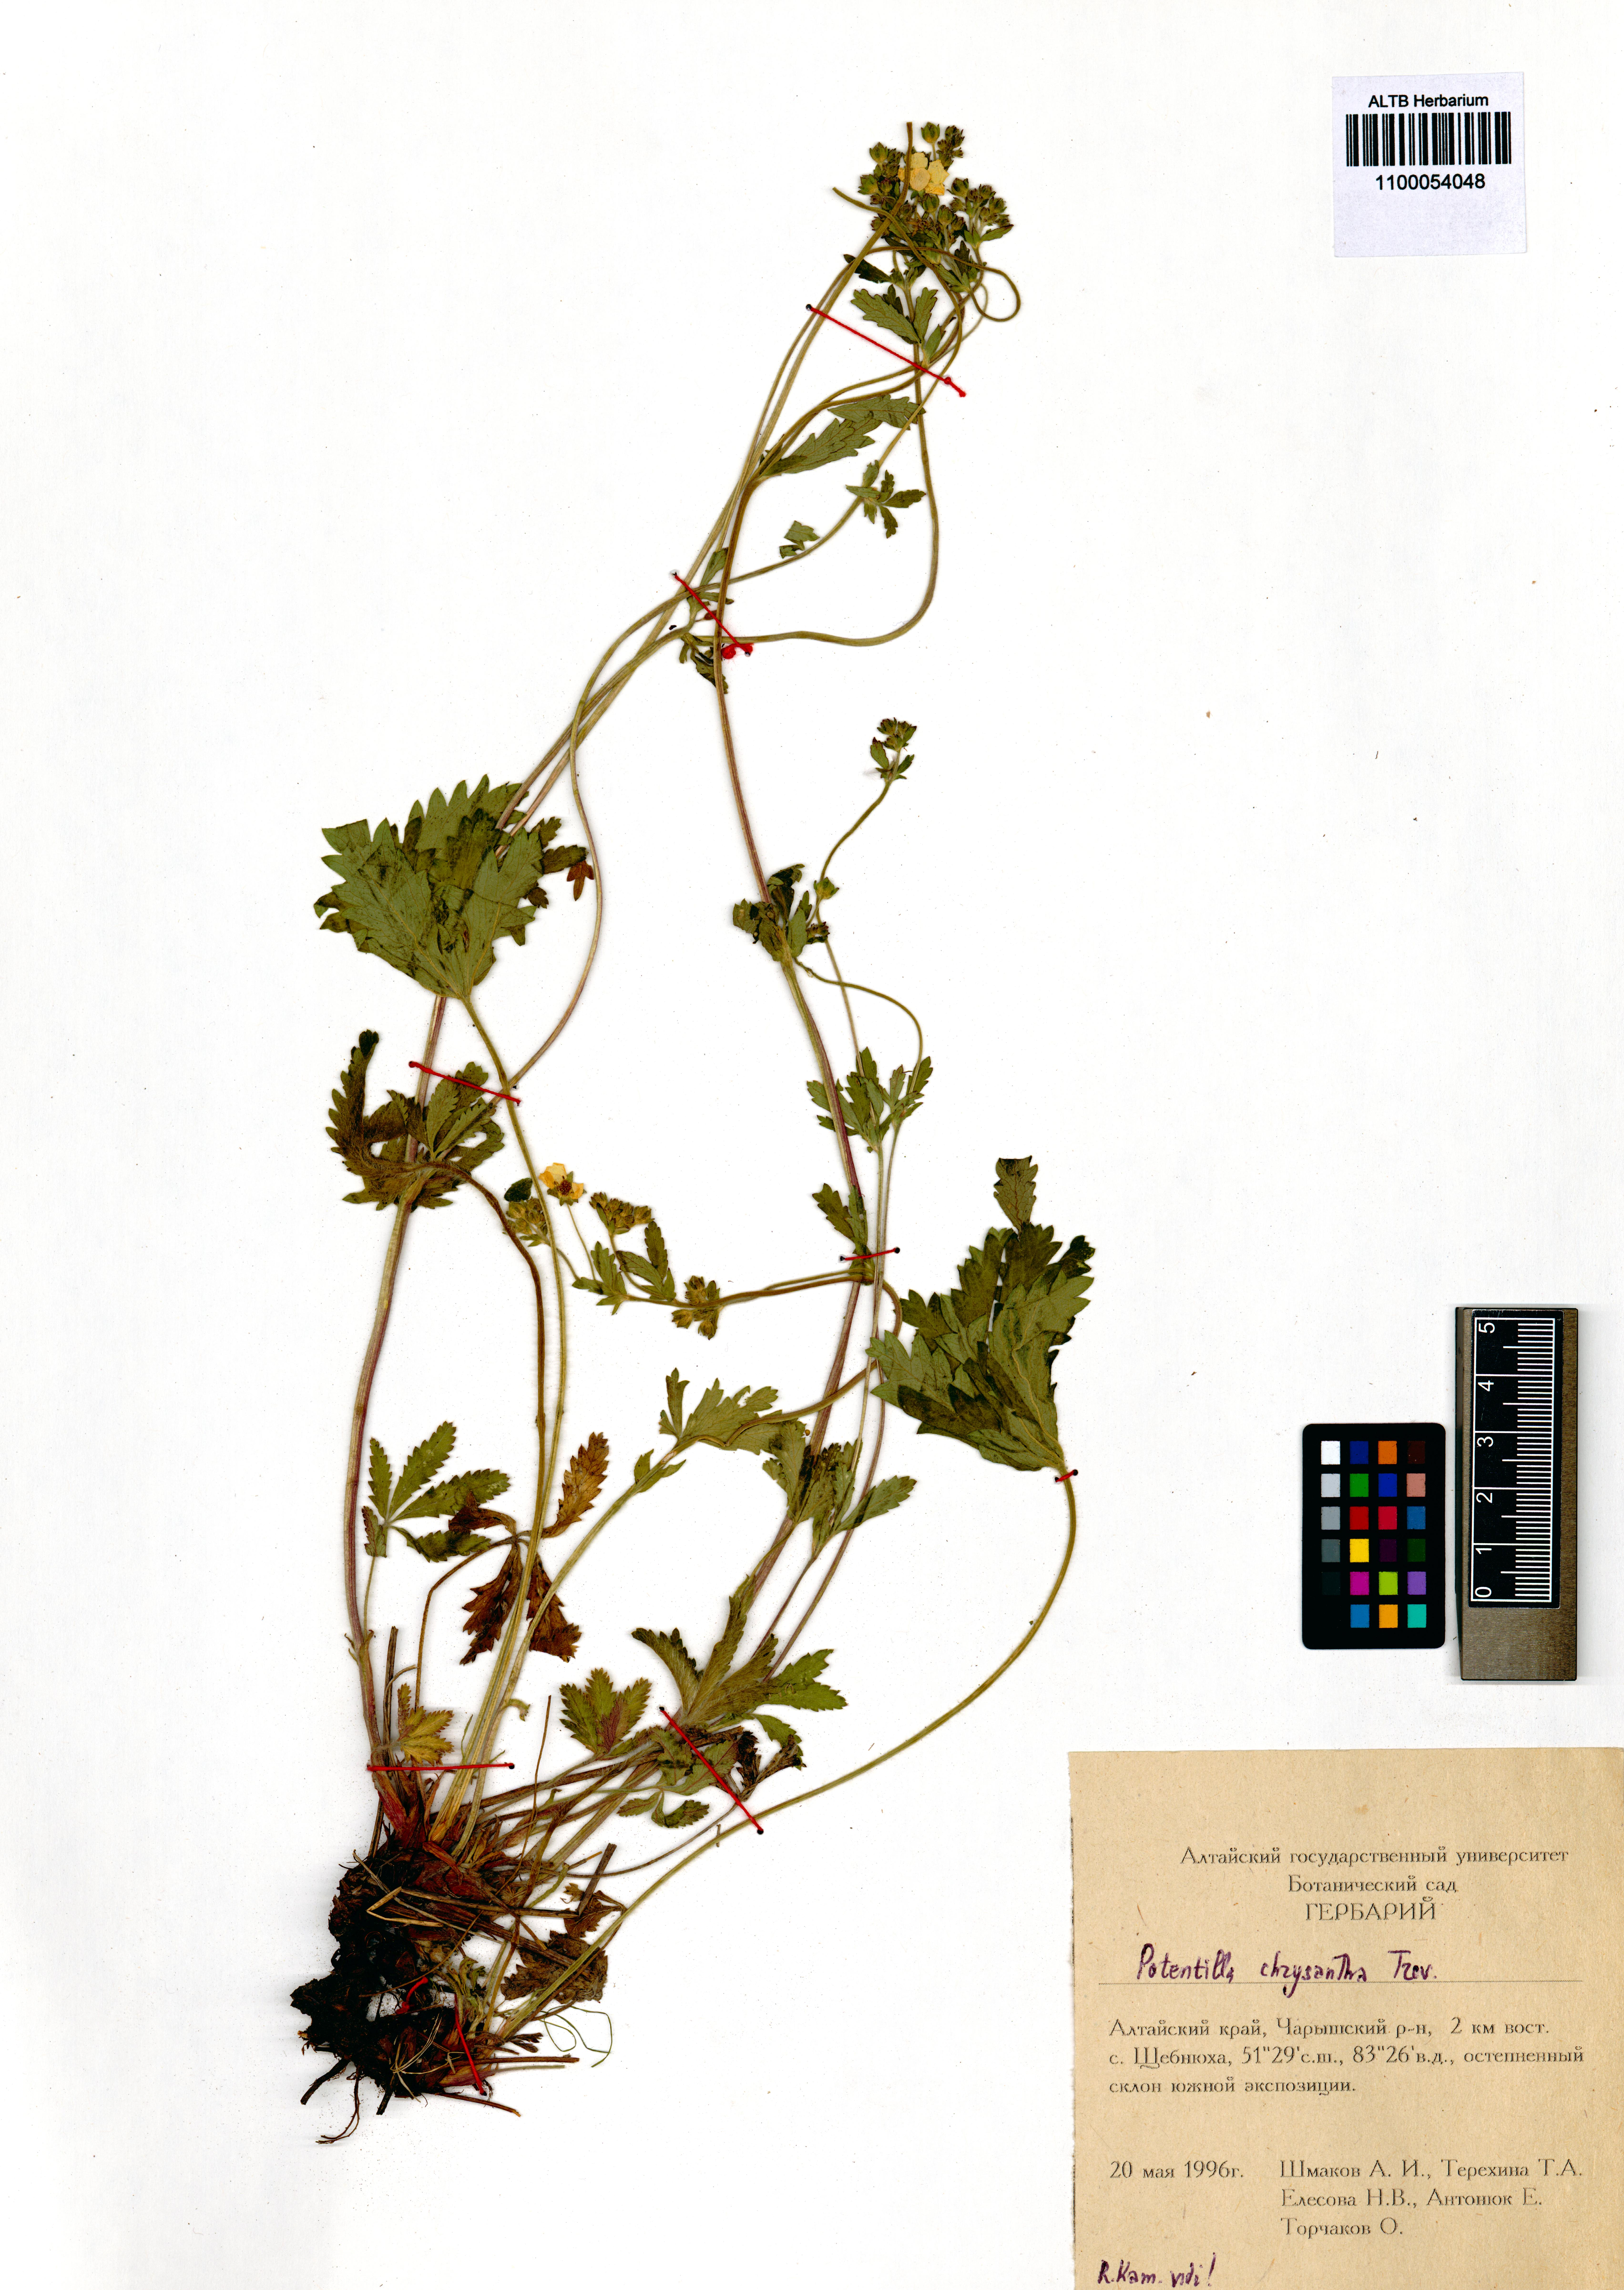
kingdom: Plantae
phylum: Tracheophyta
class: Magnoliopsida
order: Rosales
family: Rosaceae
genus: Potentilla
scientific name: Potentilla chrysantha
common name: Thuringian cinquefoil
